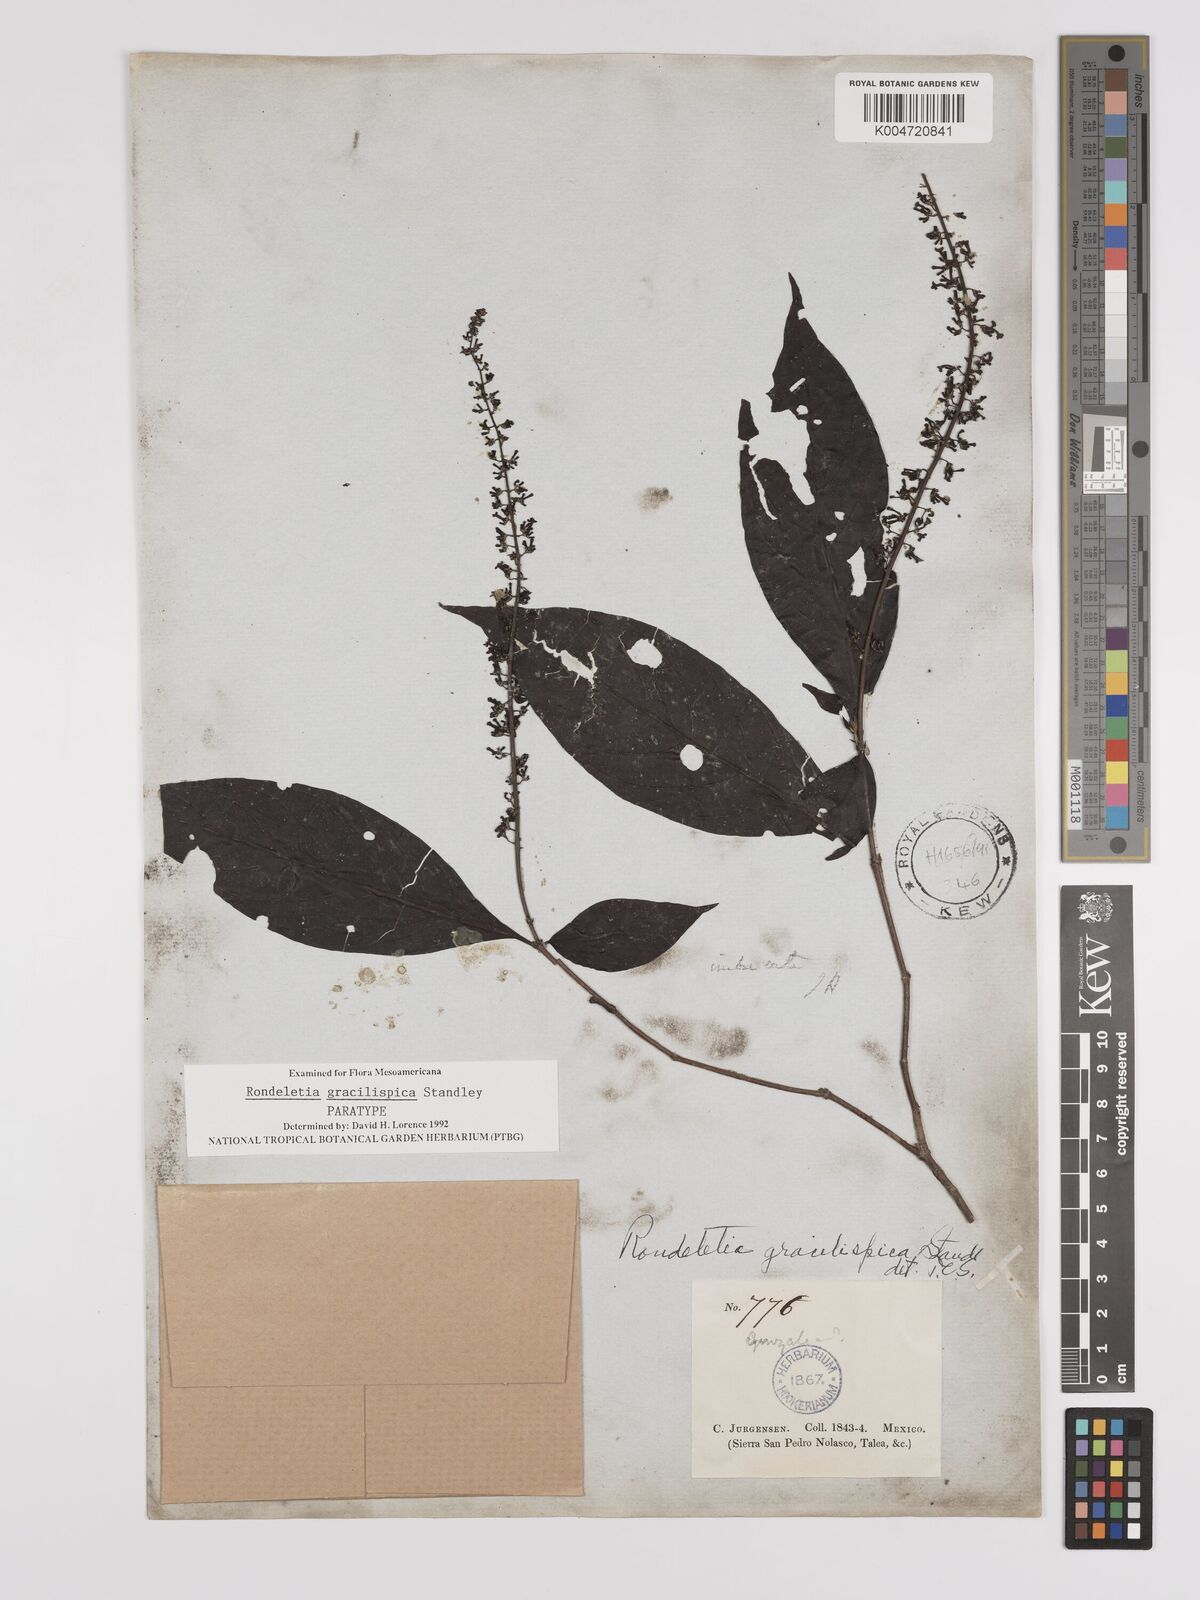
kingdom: Plantae
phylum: Tracheophyta
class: Magnoliopsida
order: Gentianales
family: Rubiaceae
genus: Arachnothryx
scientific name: Arachnothryx gracilispica
